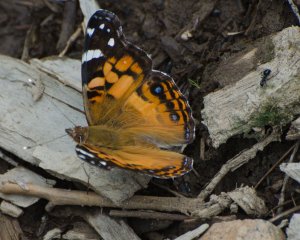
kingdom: Animalia
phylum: Arthropoda
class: Insecta
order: Lepidoptera
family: Nymphalidae
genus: Vanessa
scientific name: Vanessa virginiensis
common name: American Lady
